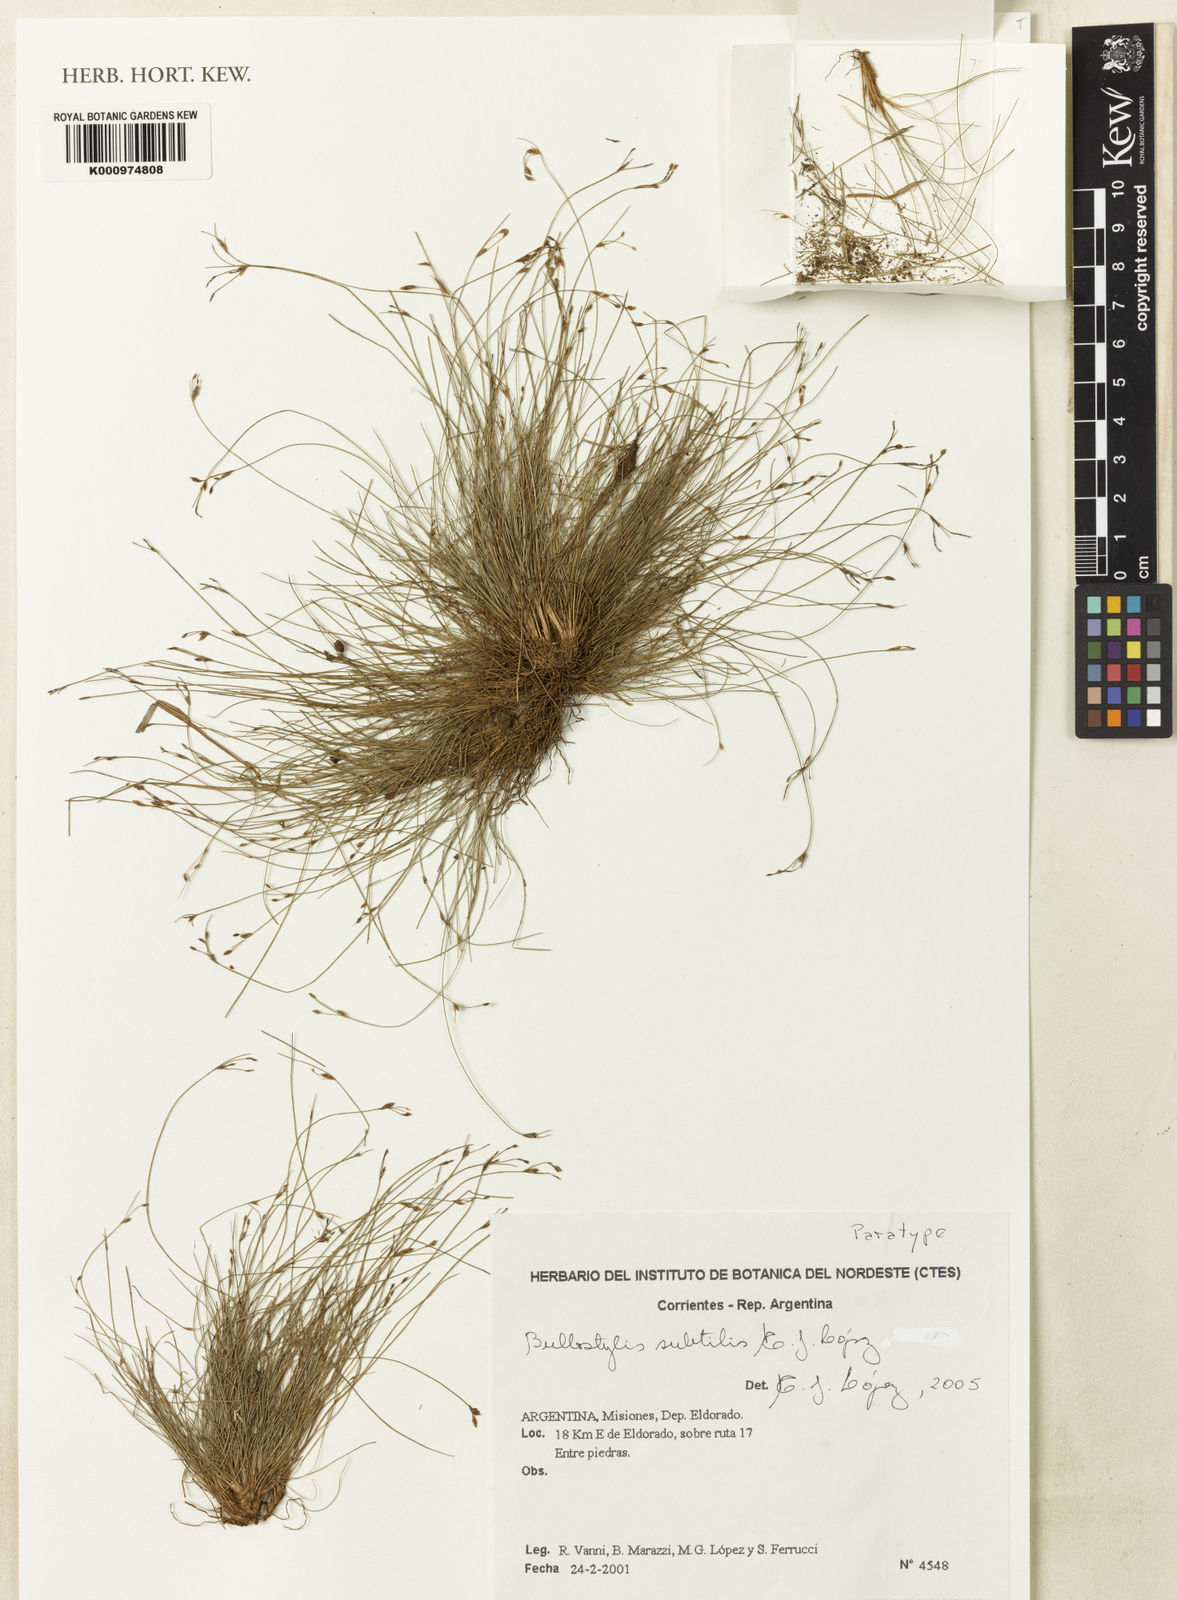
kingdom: Plantae
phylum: Tracheophyta
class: Liliopsida
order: Poales
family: Cyperaceae
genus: Bulbostylis
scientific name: Bulbostylis
